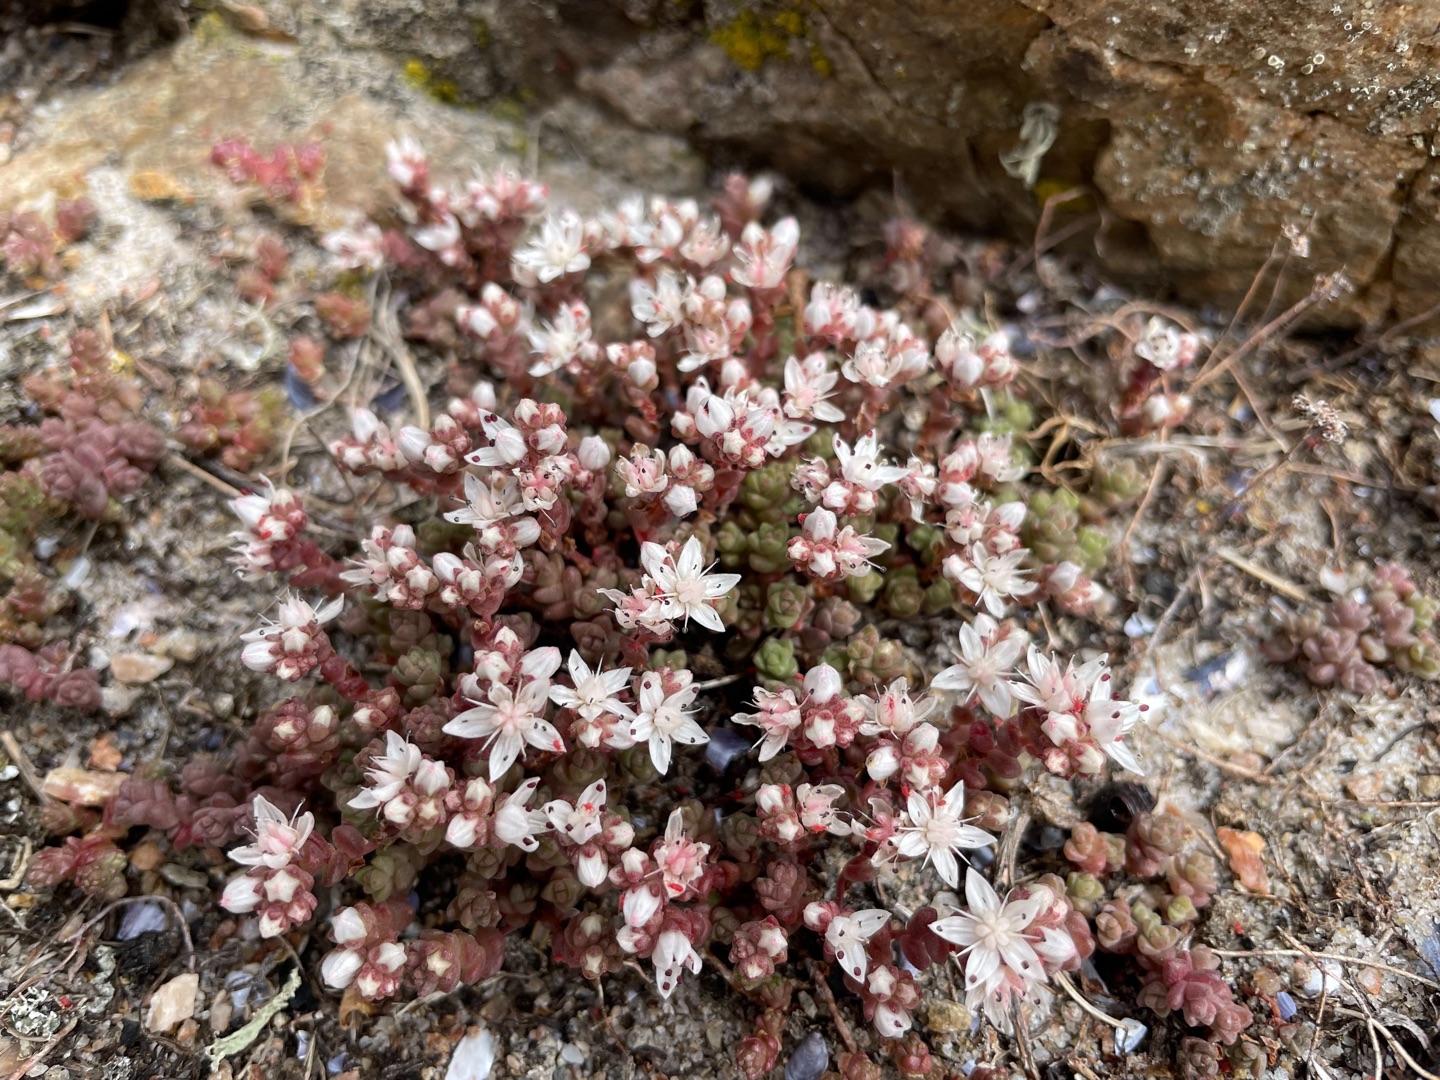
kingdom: Plantae
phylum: Tracheophyta
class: Magnoliopsida
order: Saxifragales
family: Crassulaceae
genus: Sedum
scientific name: Sedum anglicum
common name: Engelsk stenurt
